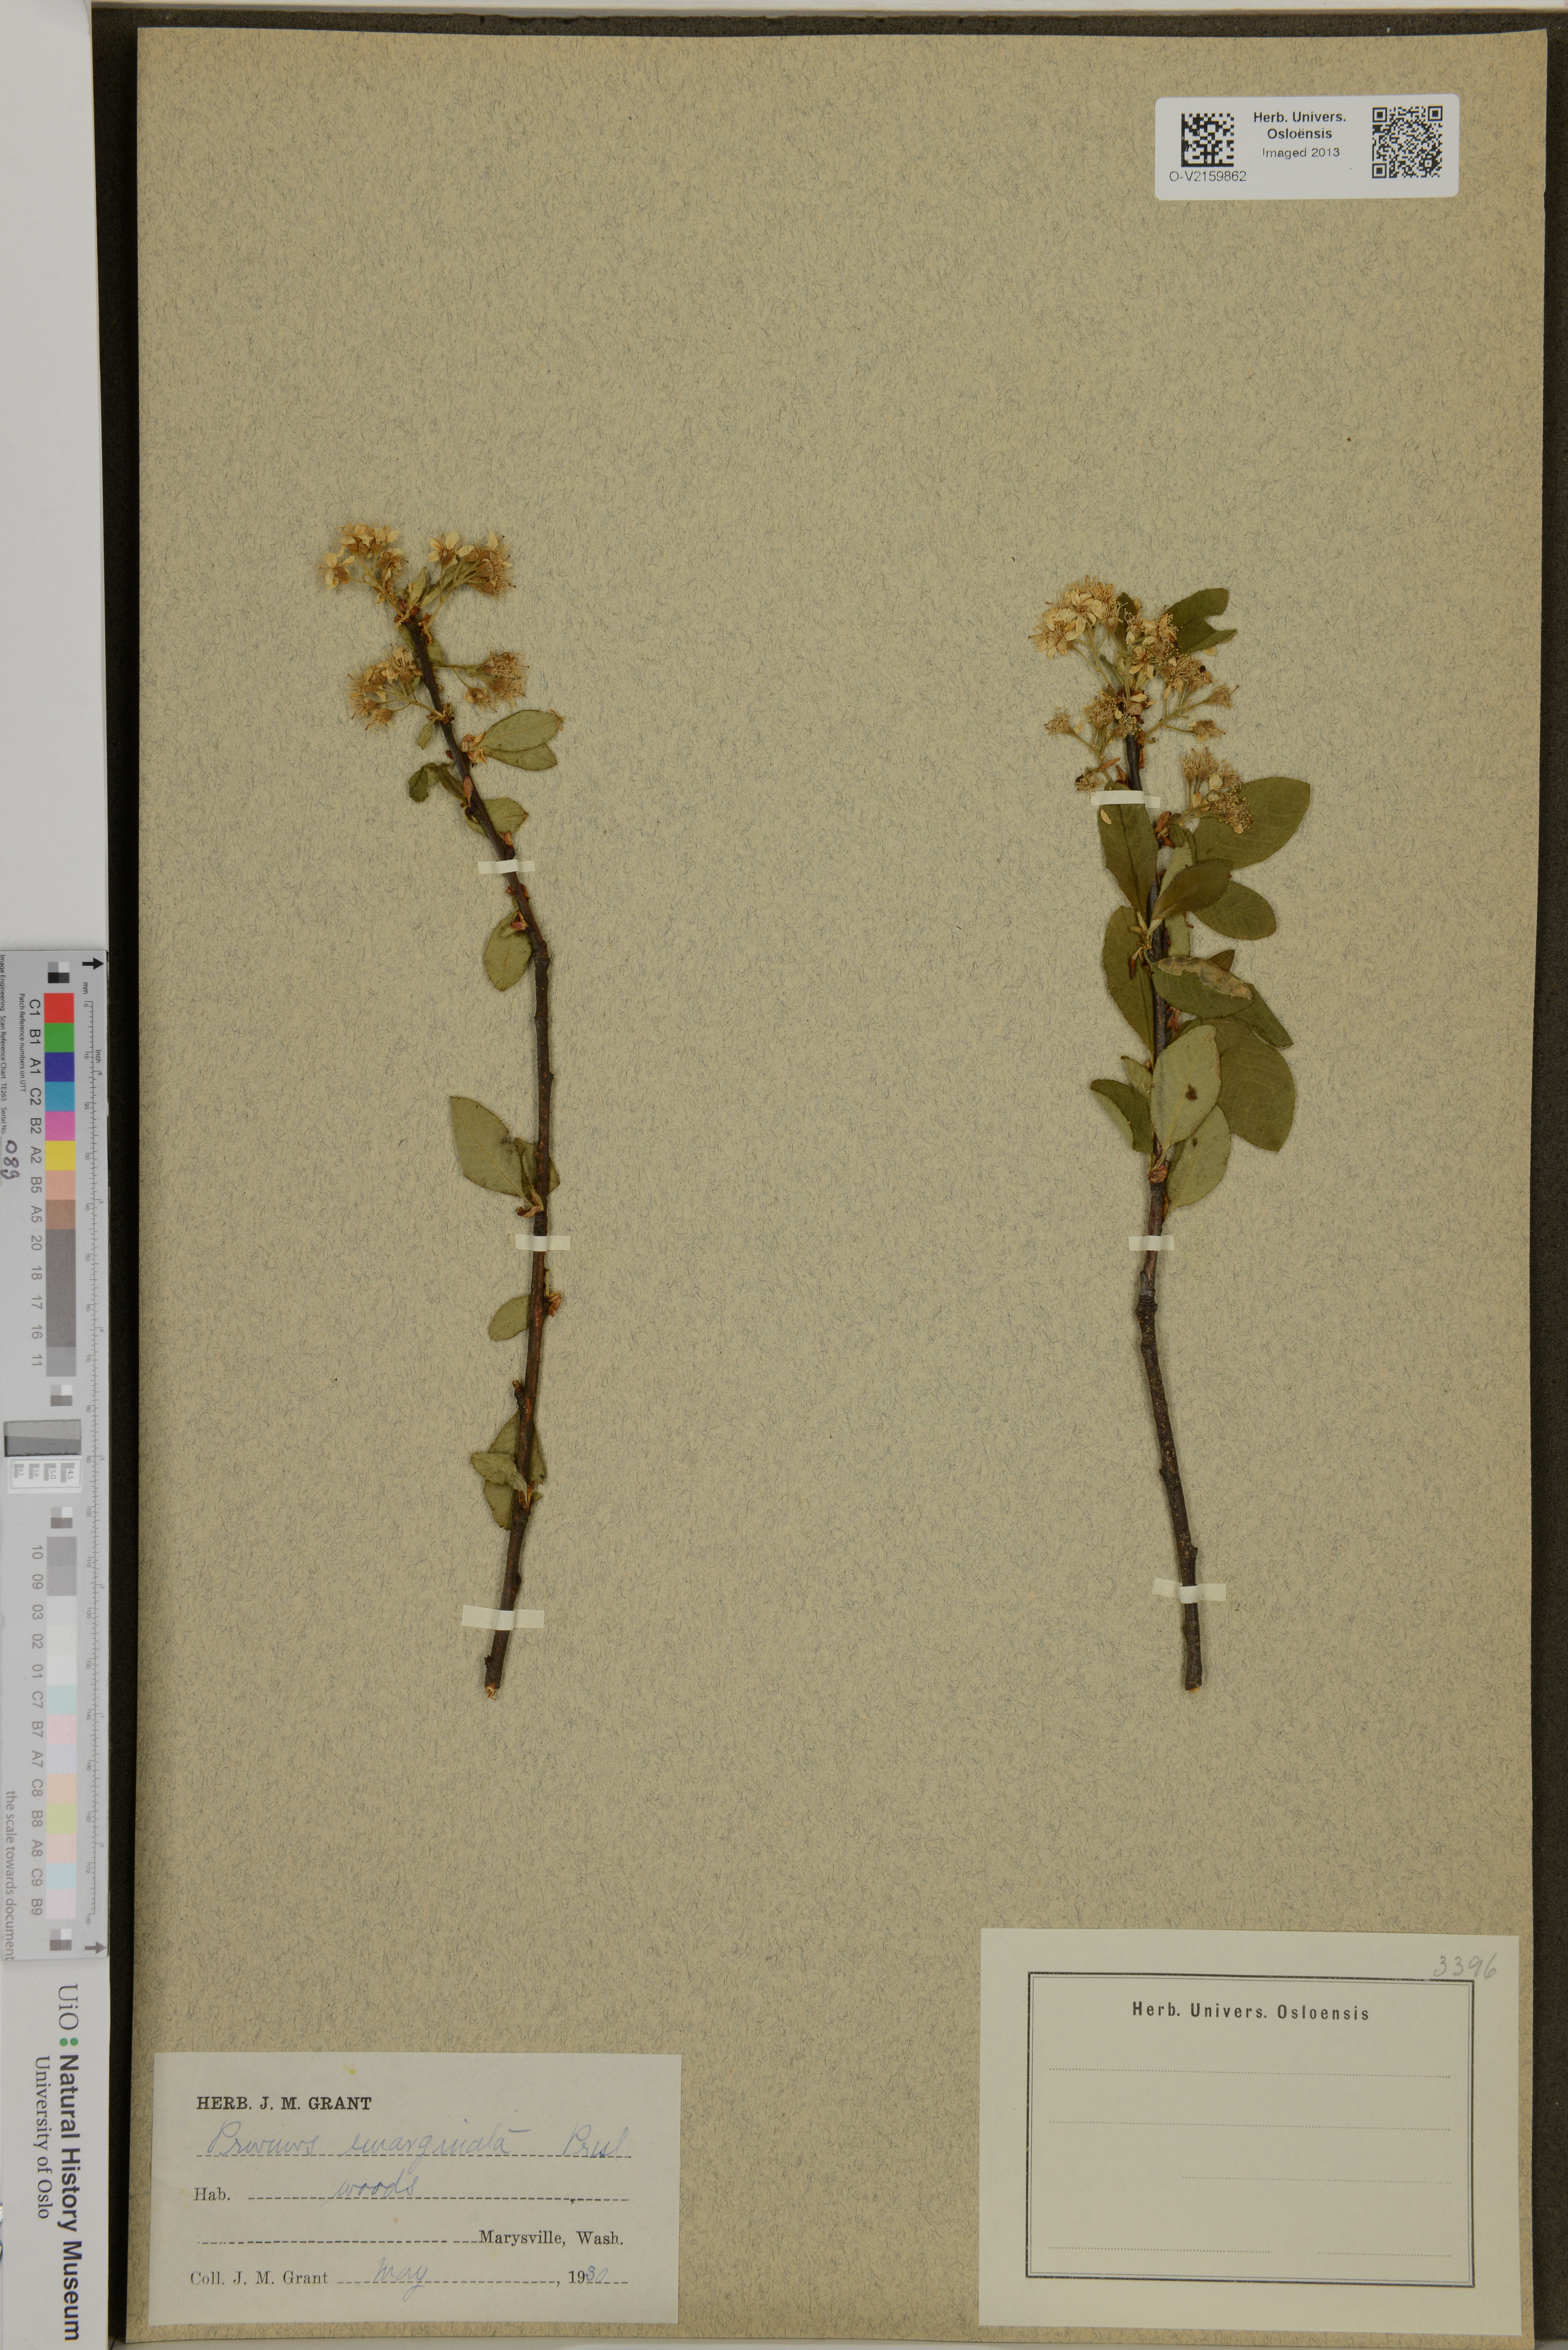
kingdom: Plantae
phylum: Tracheophyta
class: Magnoliopsida
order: Rosales
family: Rosaceae
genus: Prunus
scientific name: Prunus emarginata
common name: Bitter cherry
